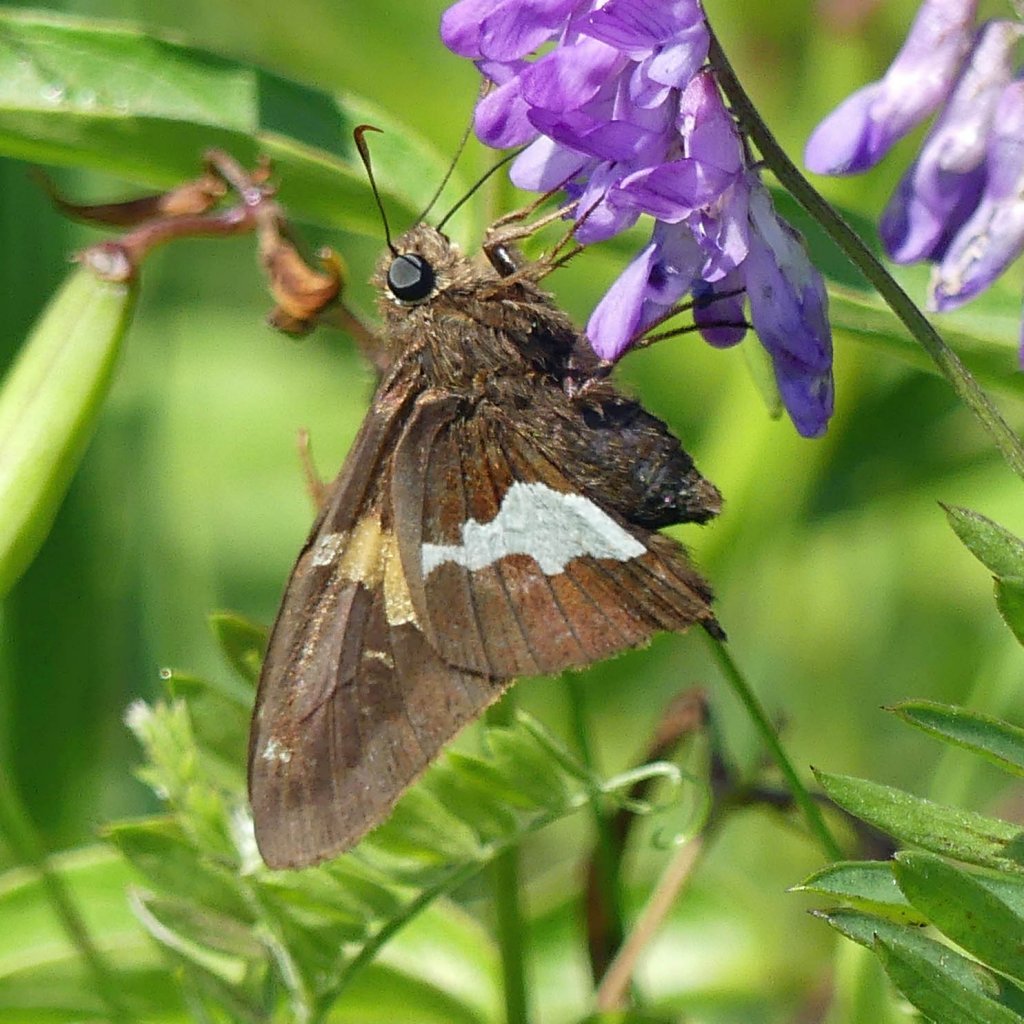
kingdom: Animalia
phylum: Arthropoda
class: Insecta
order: Lepidoptera
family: Hesperiidae
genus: Epargyreus
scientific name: Epargyreus clarus
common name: Silver-spotted Skipper
